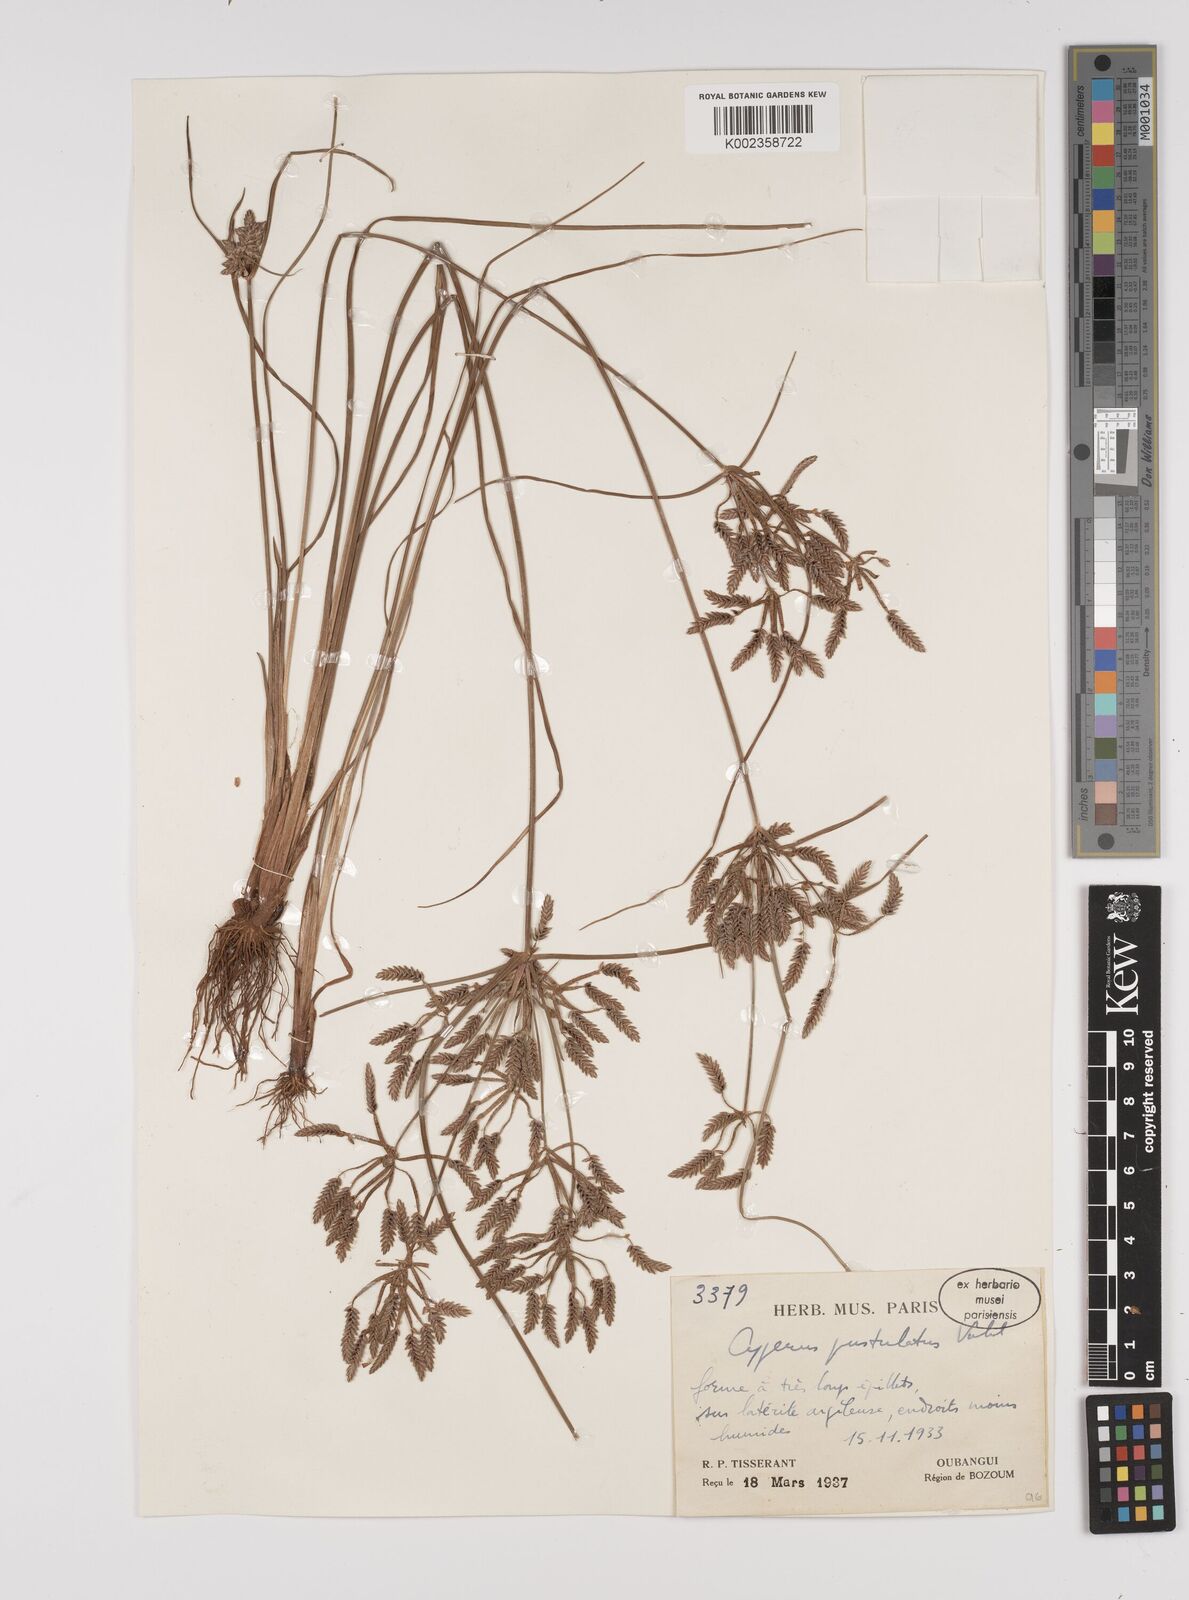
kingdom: Plantae
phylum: Tracheophyta
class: Liliopsida
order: Poales
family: Cyperaceae
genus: Cyperus
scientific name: Cyperus pustulatus
